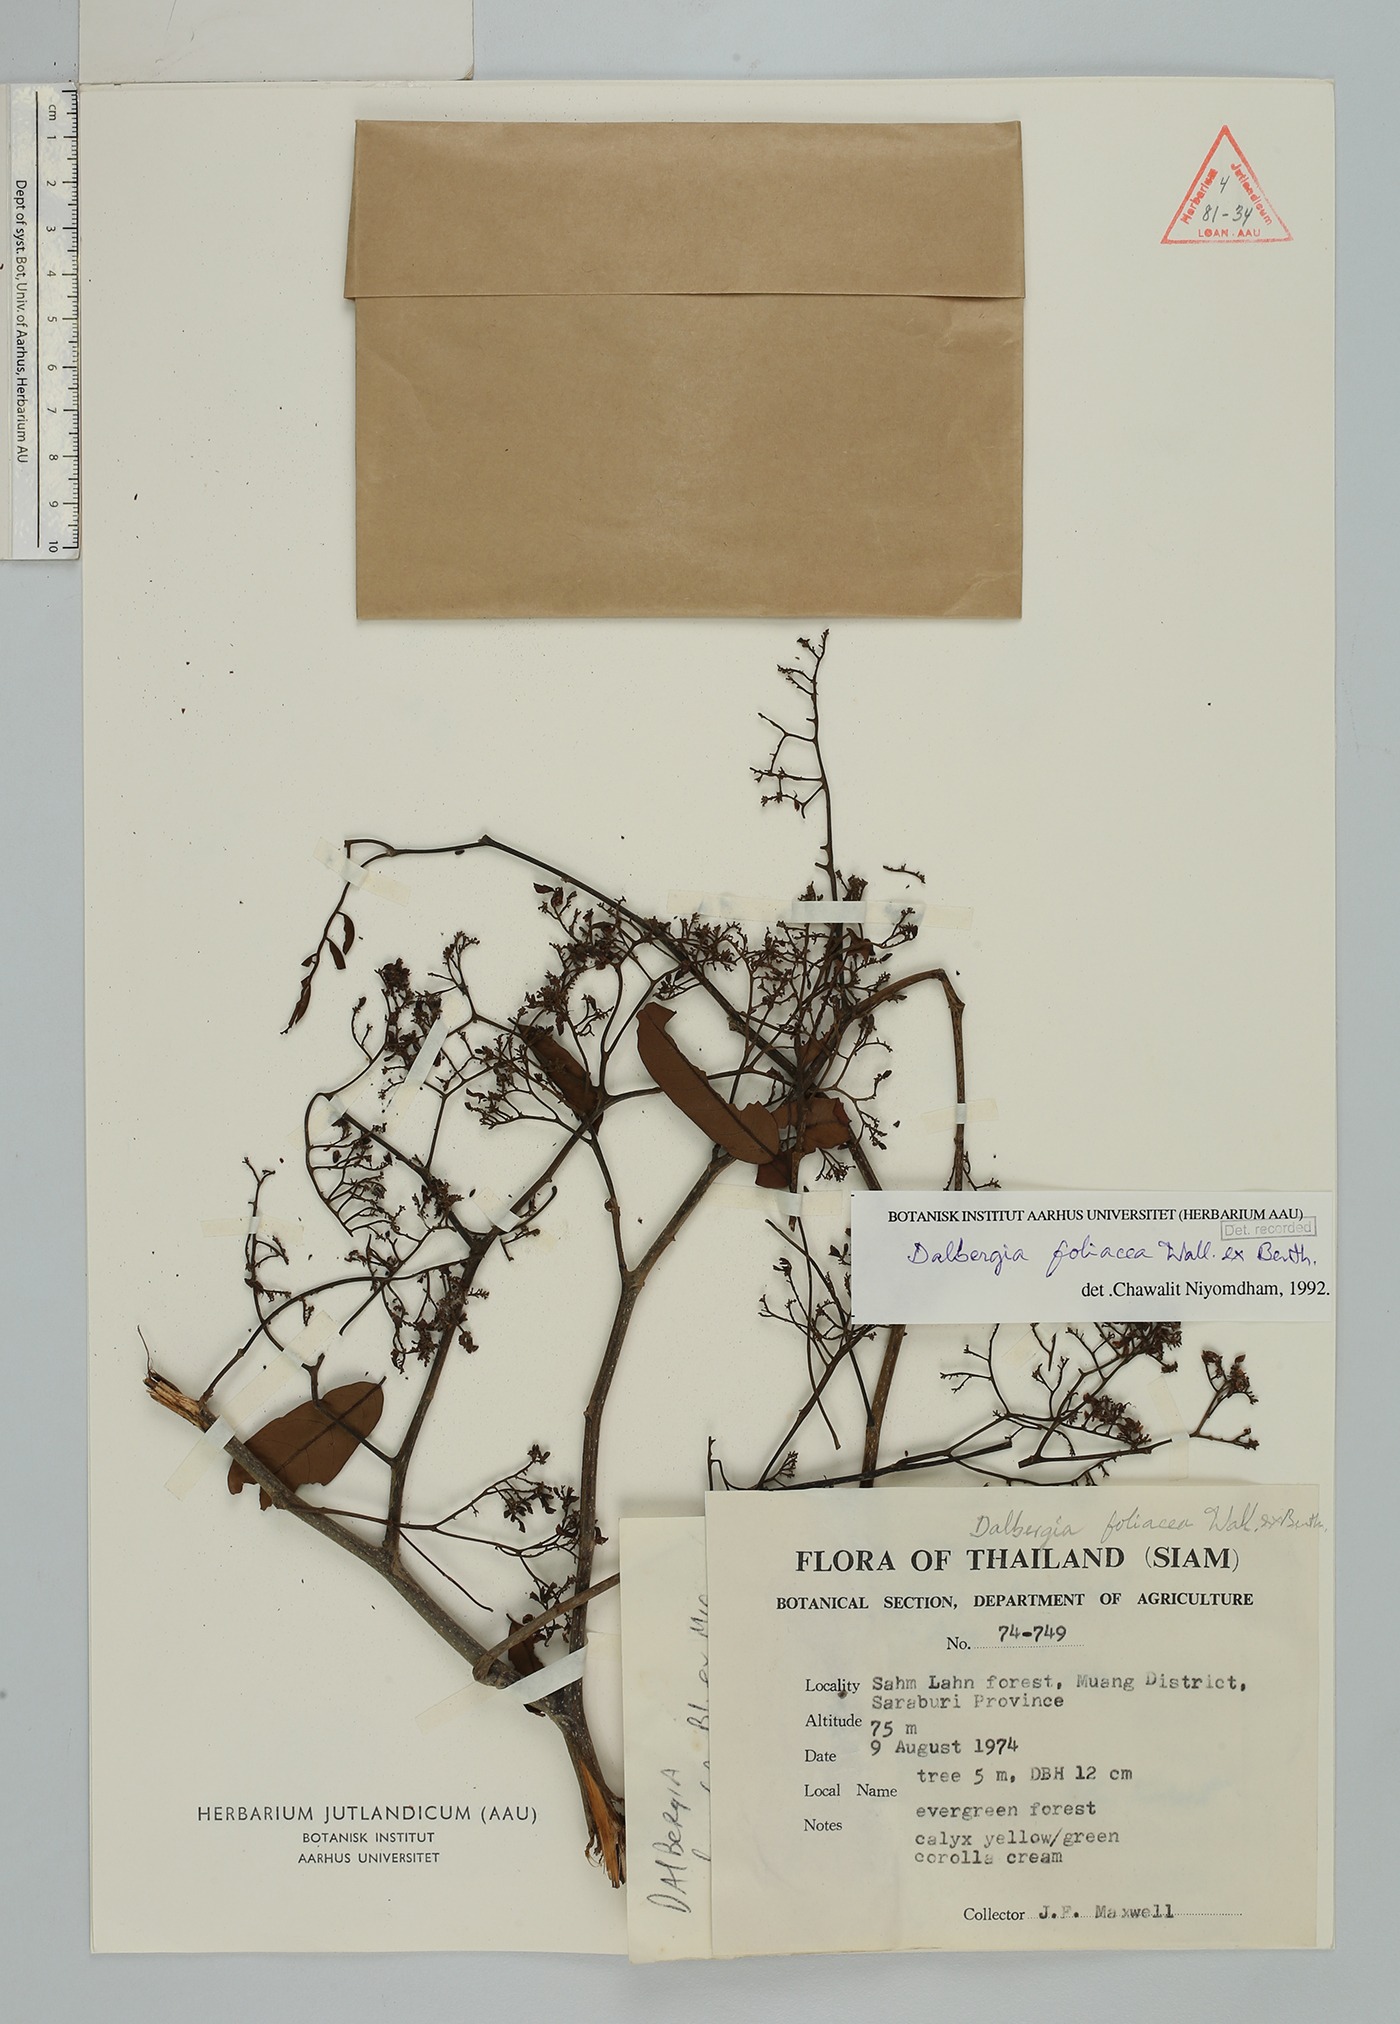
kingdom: Plantae
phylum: Tracheophyta
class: Magnoliopsida
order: Fabales
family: Fabaceae
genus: Dalbergia
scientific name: Dalbergia foliosa
